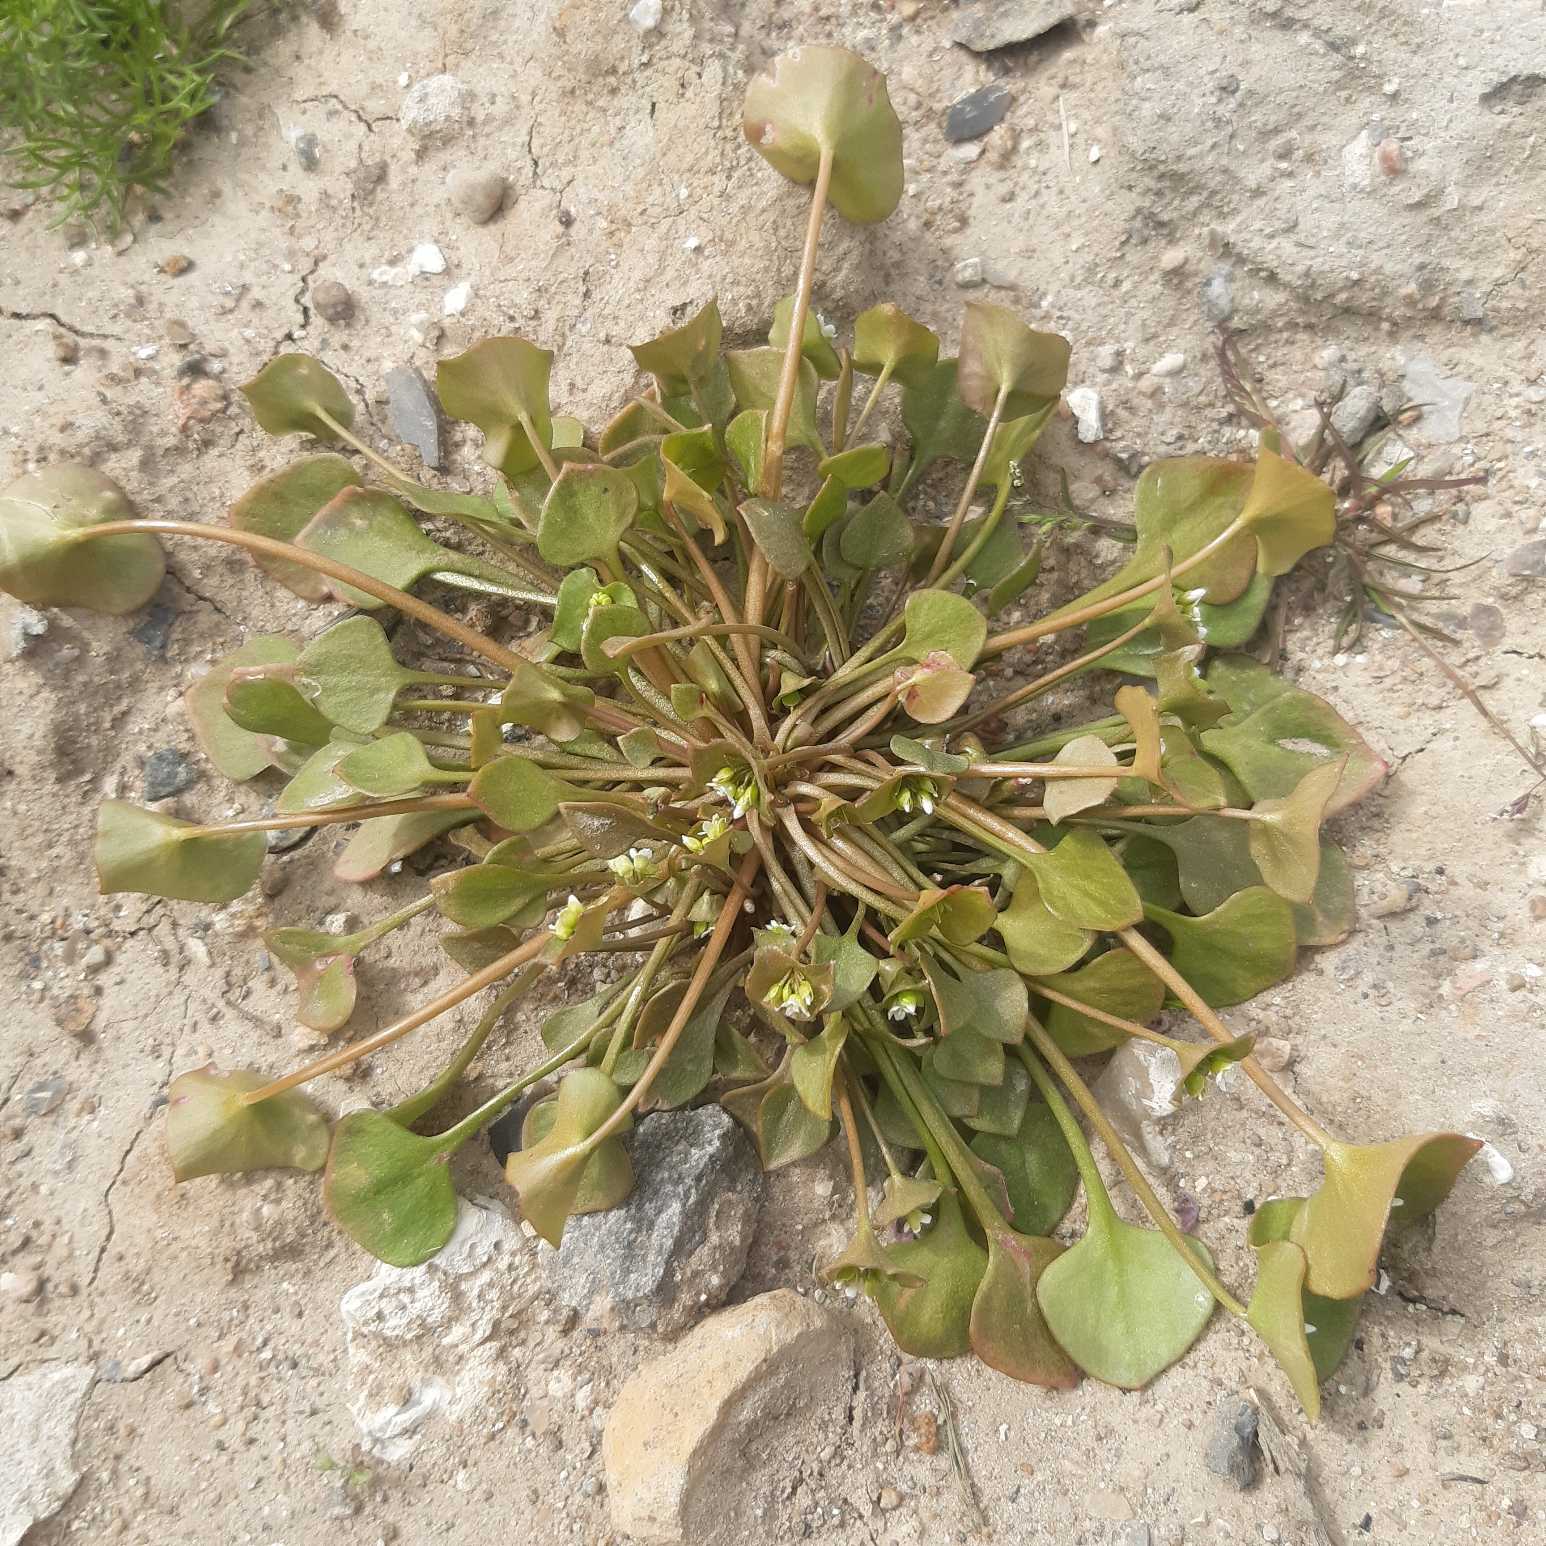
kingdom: Plantae
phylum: Tracheophyta
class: Magnoliopsida
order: Caryophyllales
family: Montiaceae
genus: Claytonia
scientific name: Claytonia perfoliata
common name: Spiselig vinterportulak
